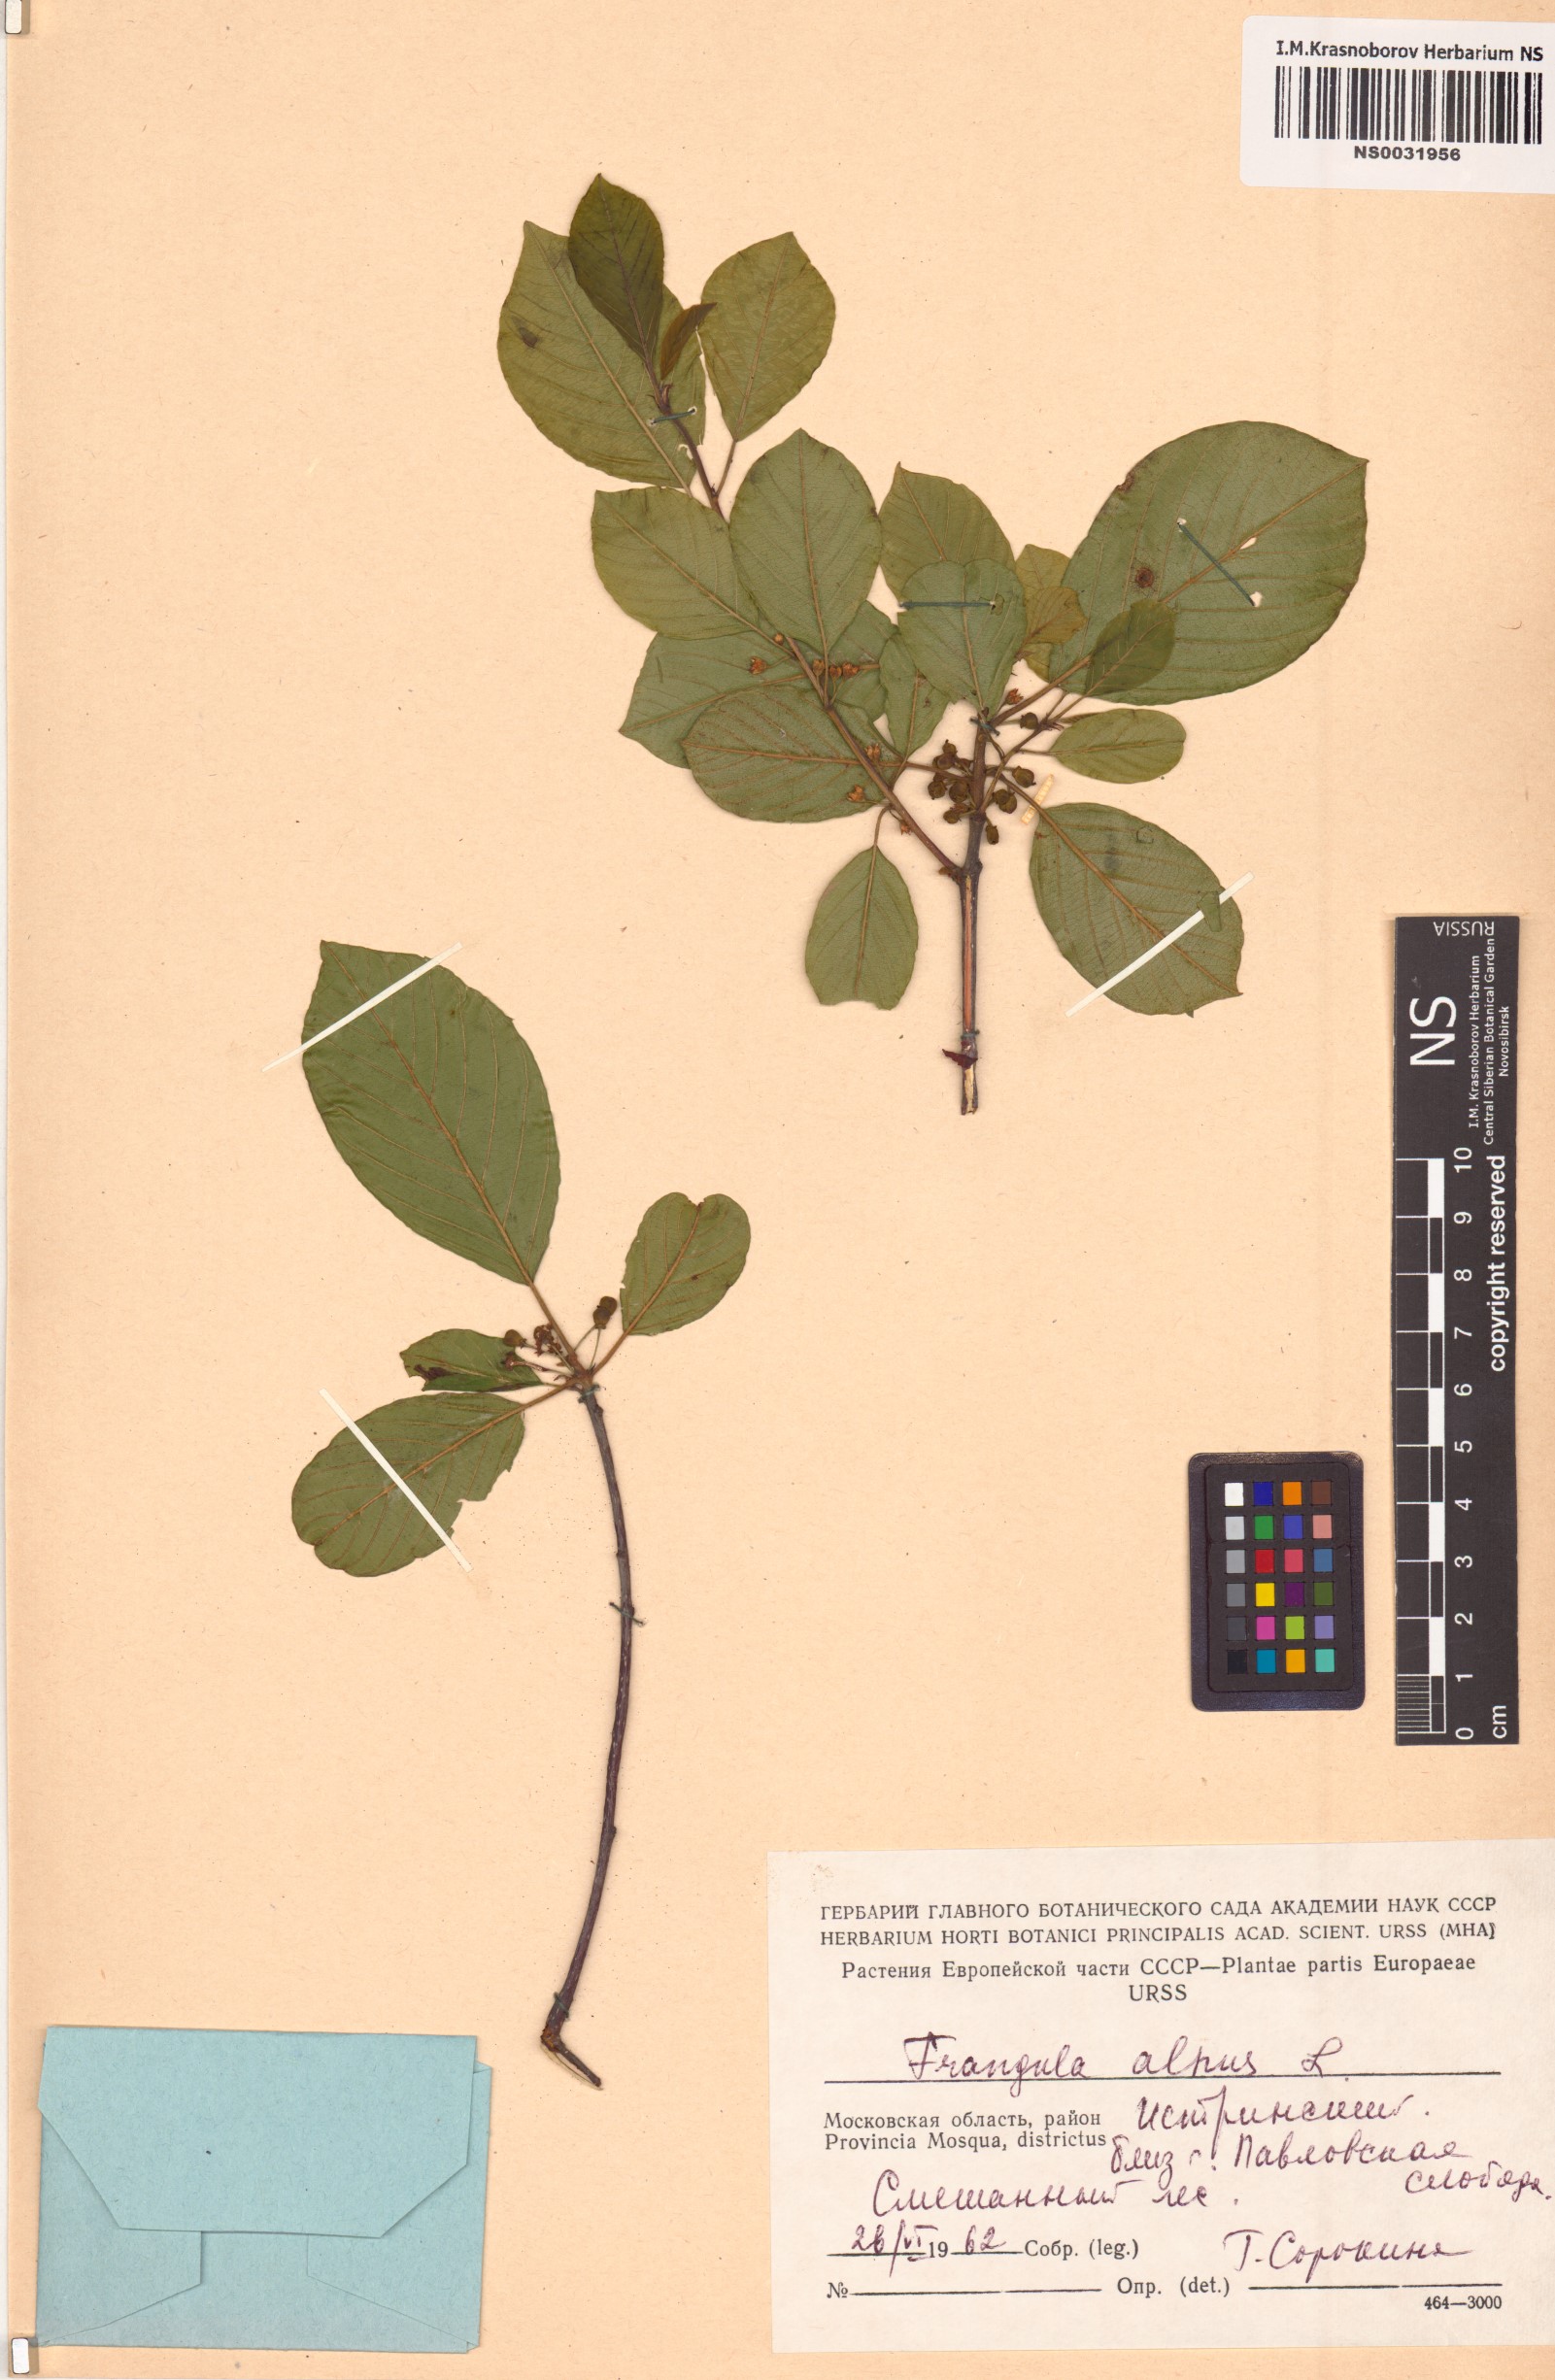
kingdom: Plantae
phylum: Tracheophyta
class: Magnoliopsida
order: Rosales
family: Rhamnaceae
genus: Frangula
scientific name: Frangula alnus
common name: Alder buckthorn
